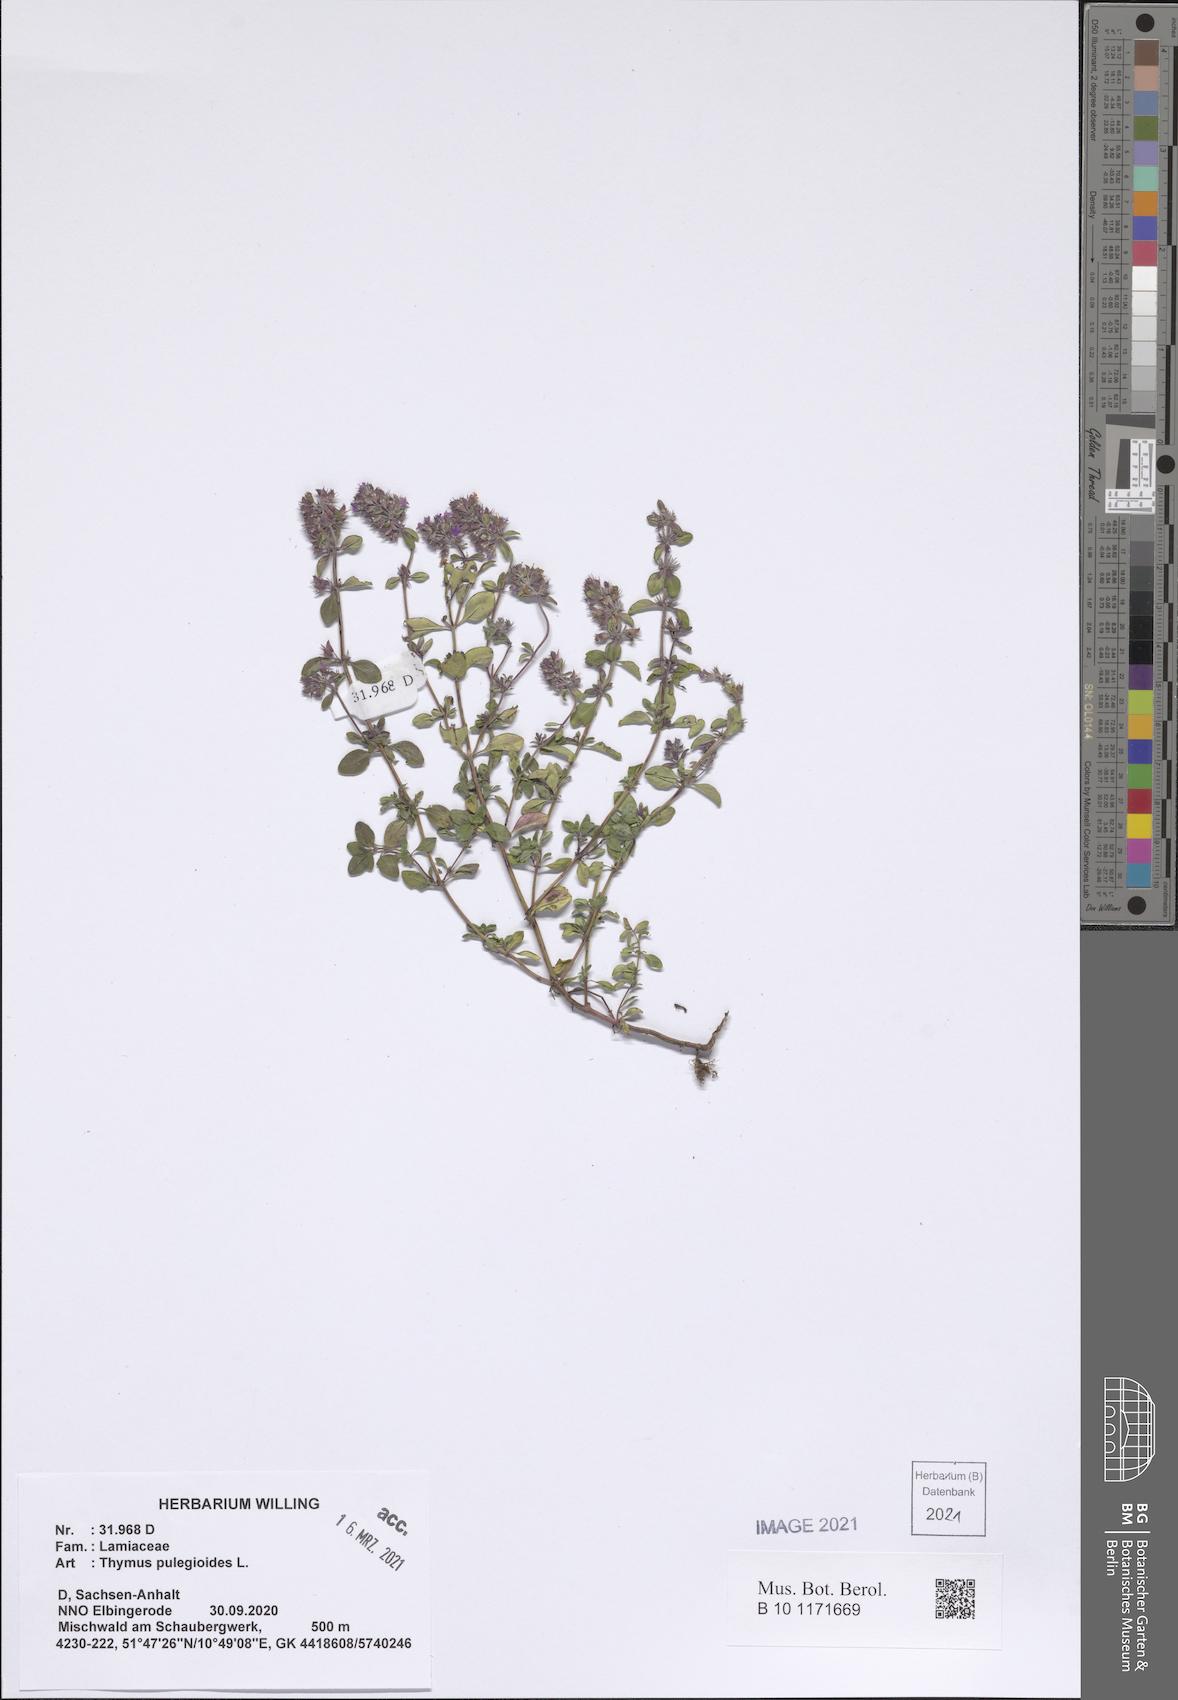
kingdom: Plantae
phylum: Tracheophyta
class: Magnoliopsida
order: Lamiales
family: Lamiaceae
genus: Thymus
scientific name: Thymus pulegioides
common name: Large thyme
